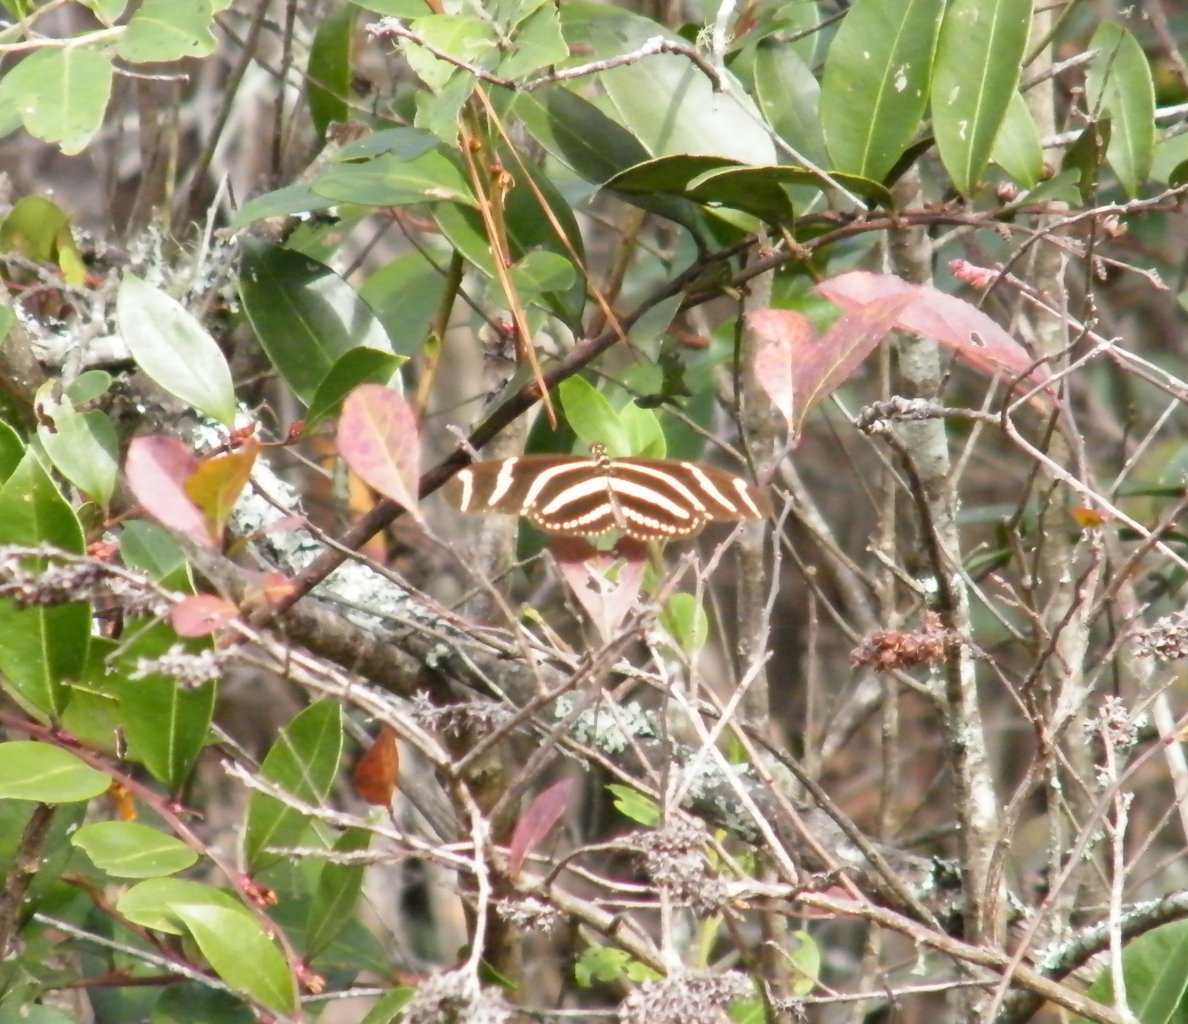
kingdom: Animalia
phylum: Arthropoda
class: Insecta
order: Lepidoptera
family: Nymphalidae
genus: Heliconius
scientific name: Heliconius charithonia
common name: Zebra Longwing
